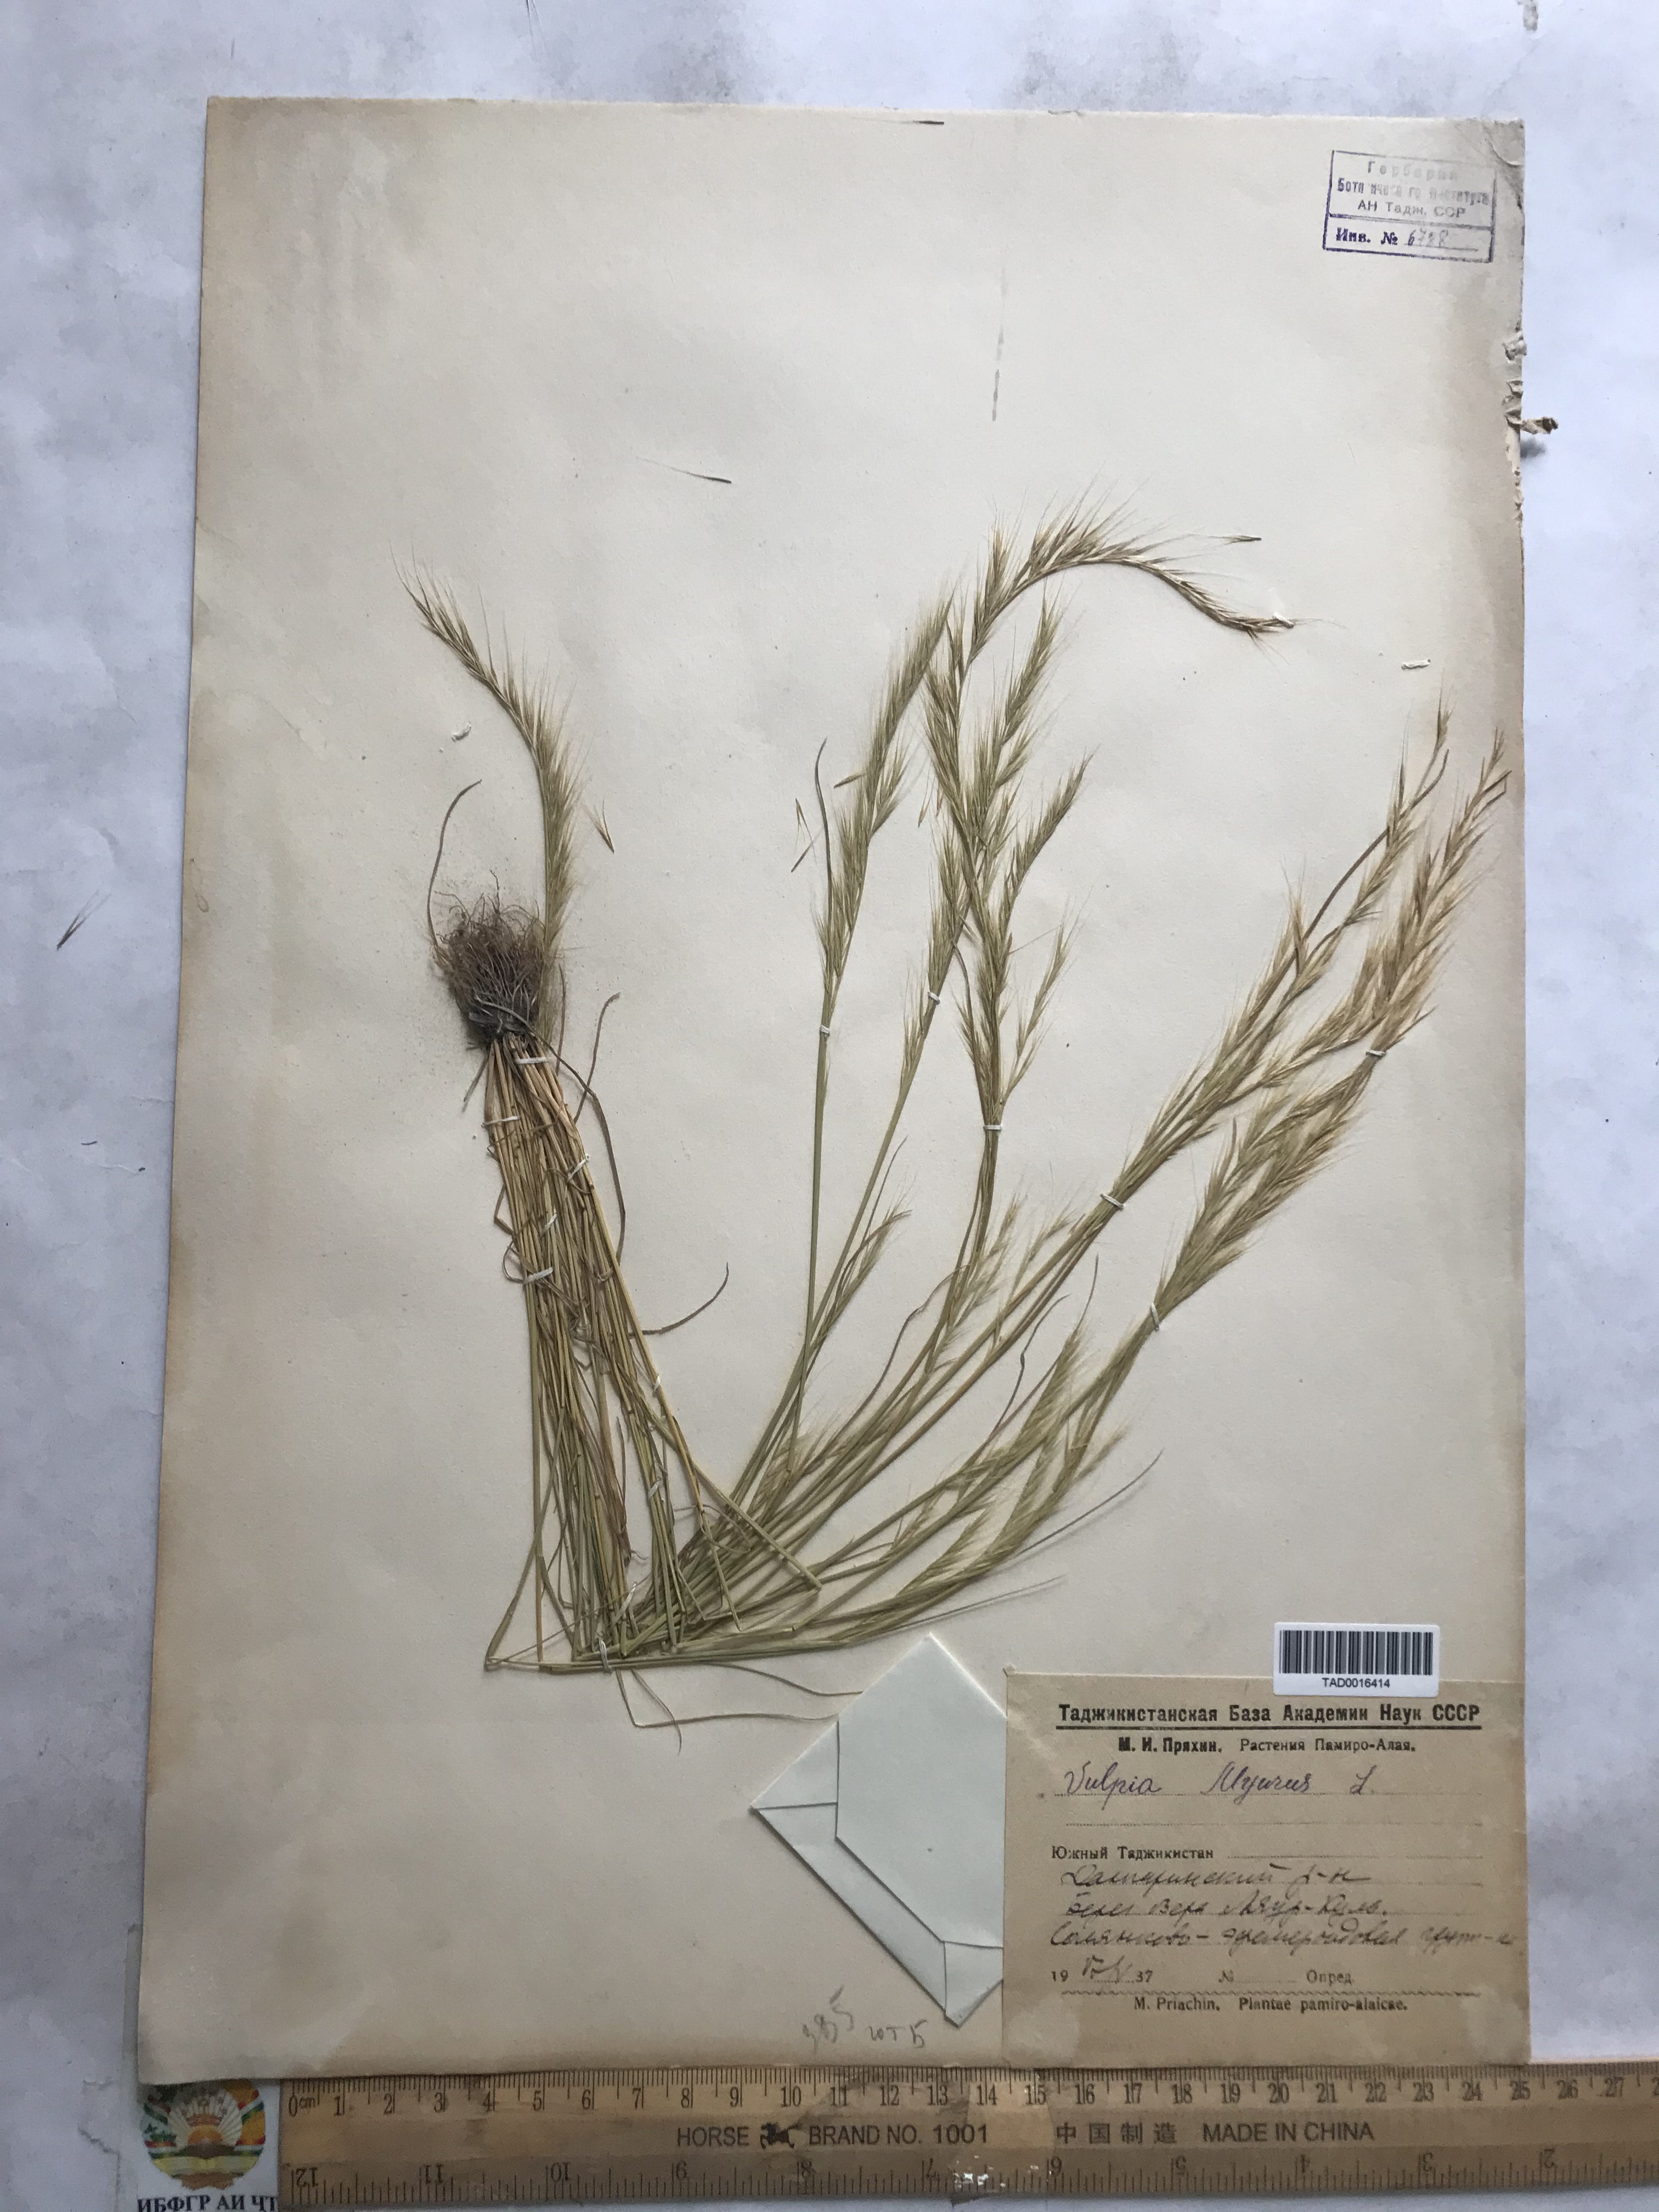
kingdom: Plantae
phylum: Tracheophyta
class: Liliopsida
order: Poales
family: Poaceae
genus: Festuca
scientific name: Festuca myuros
